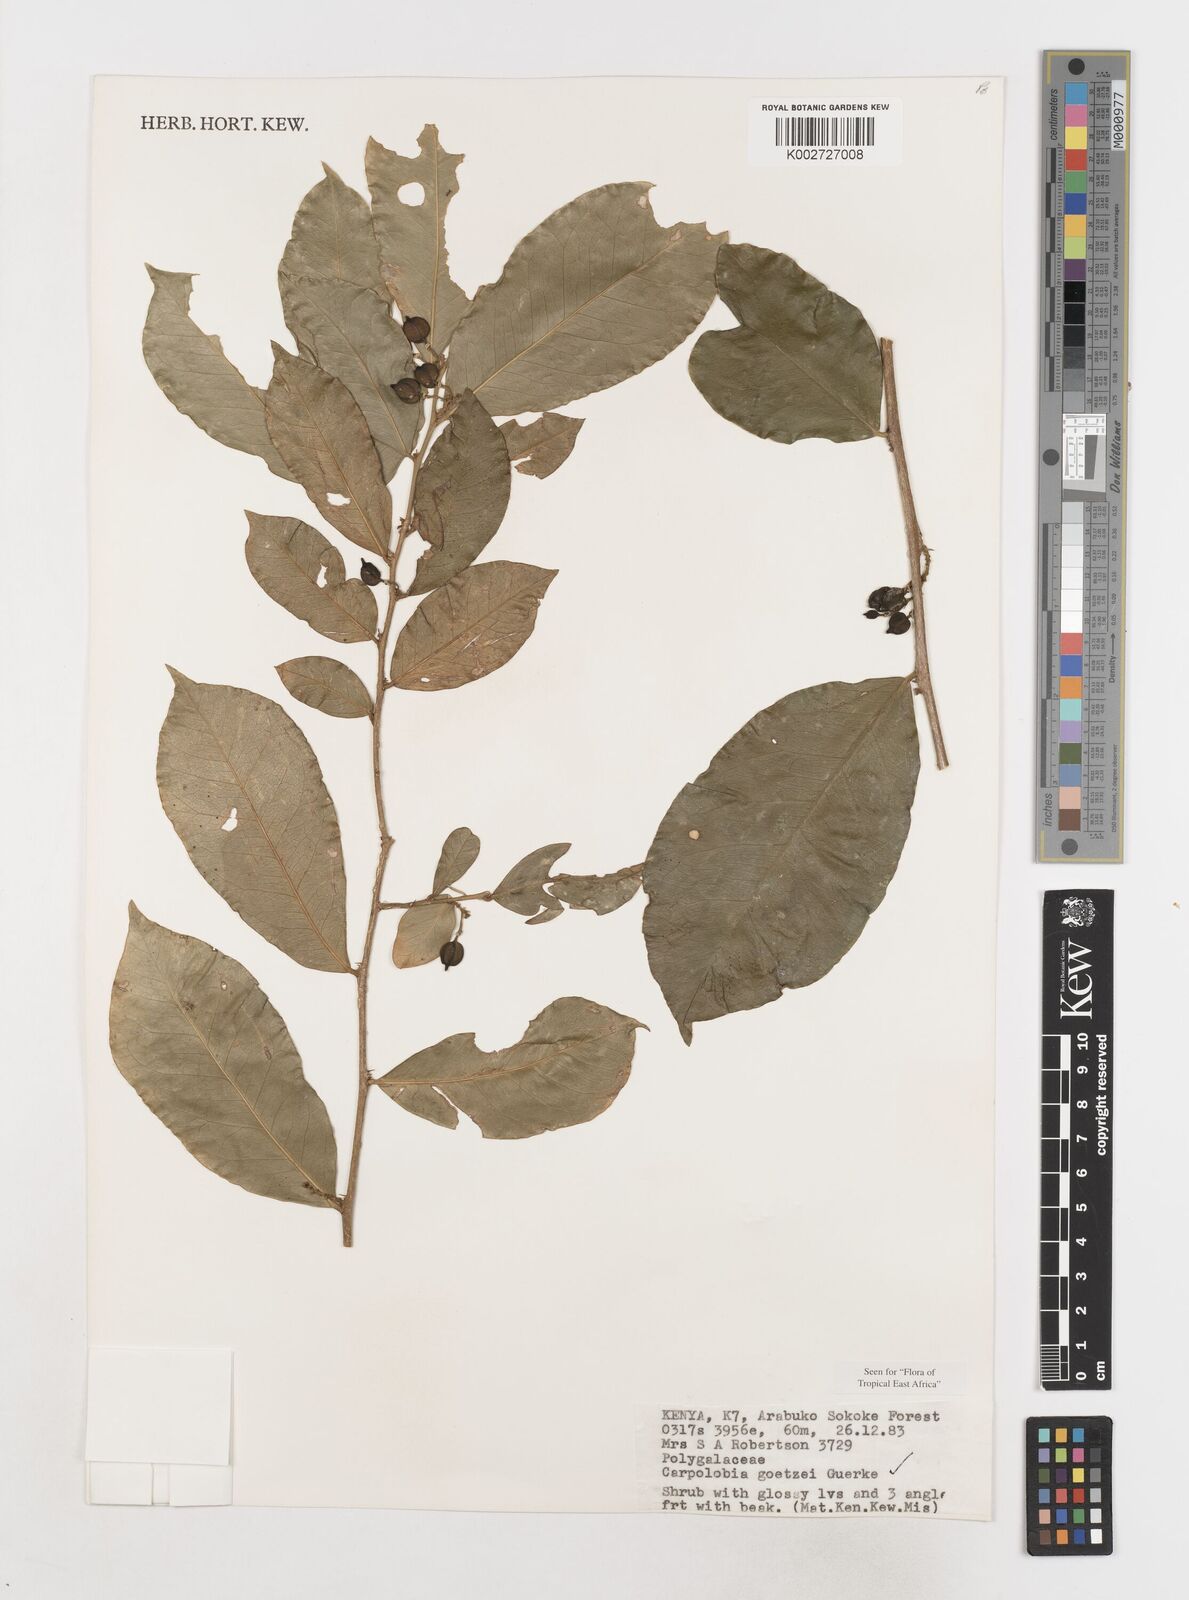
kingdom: Plantae
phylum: Tracheophyta
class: Magnoliopsida
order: Fabales
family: Polygalaceae
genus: Carpolobia
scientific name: Carpolobia goetzei
